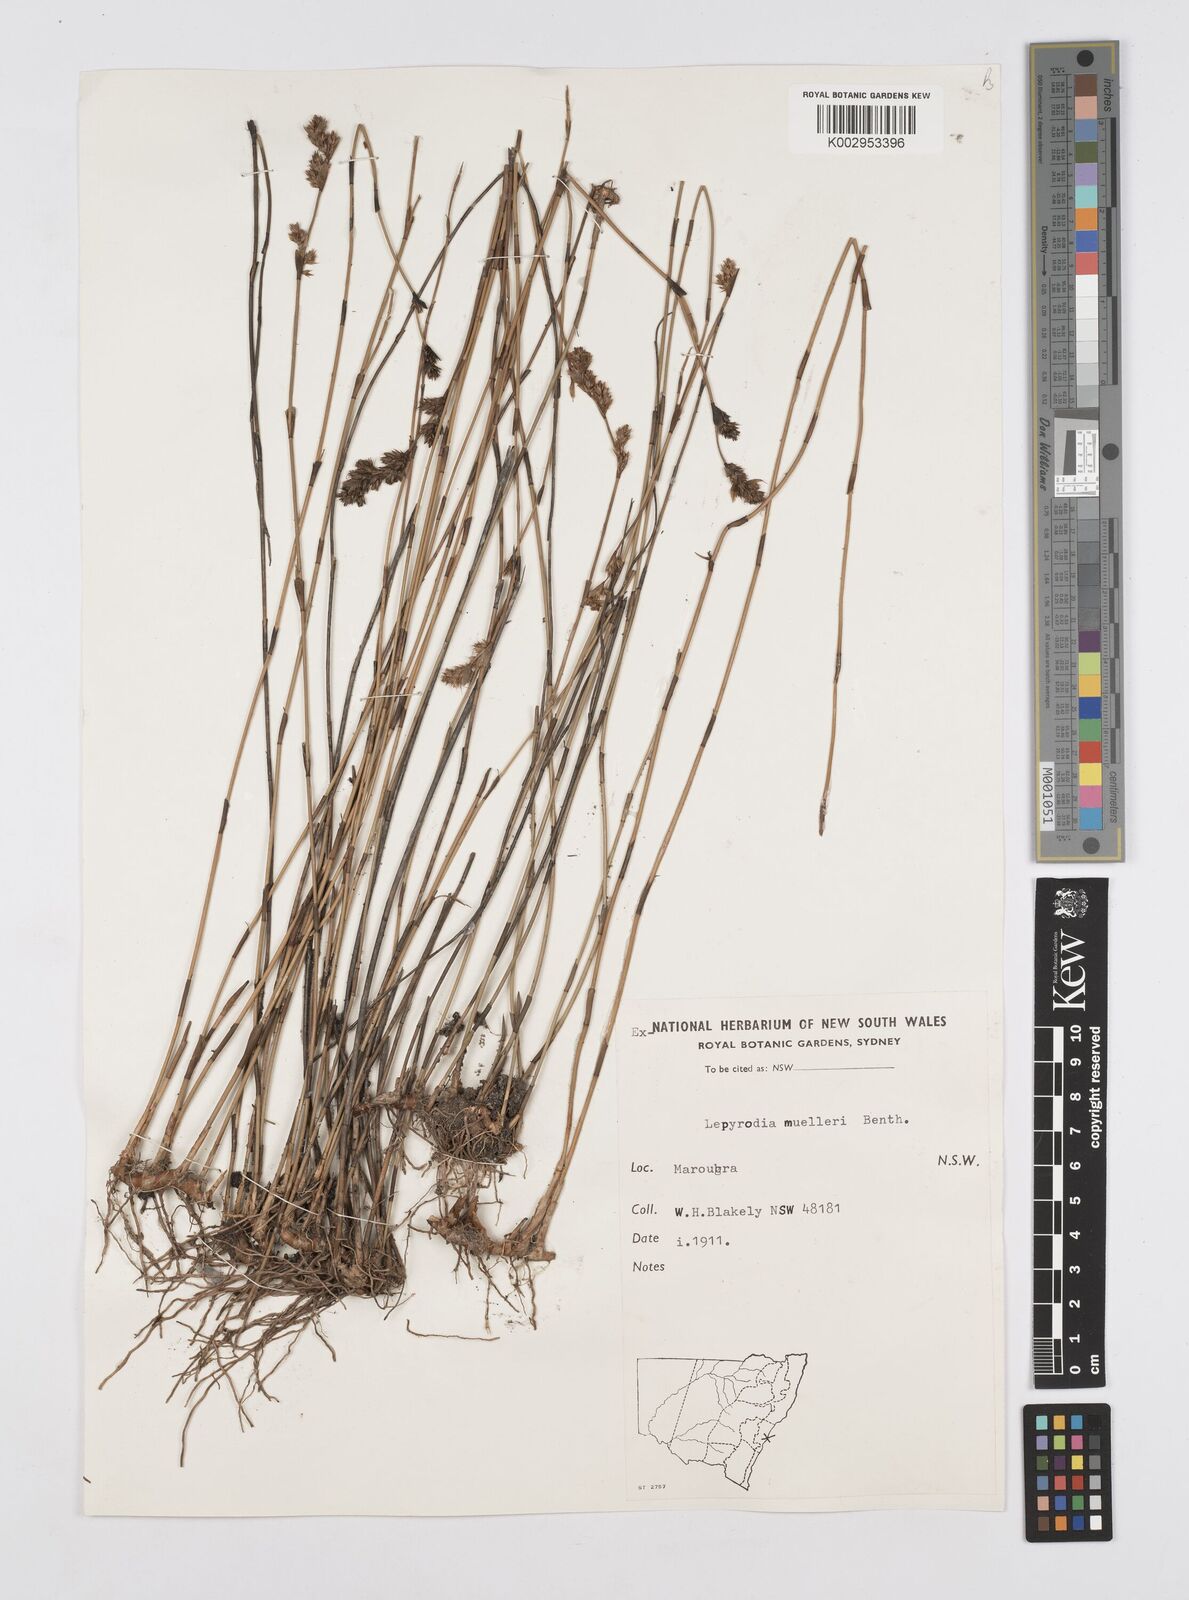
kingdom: Plantae
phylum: Tracheophyta
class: Liliopsida
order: Poales
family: Restionaceae
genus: Lepyrodia
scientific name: Lepyrodia muelleri
